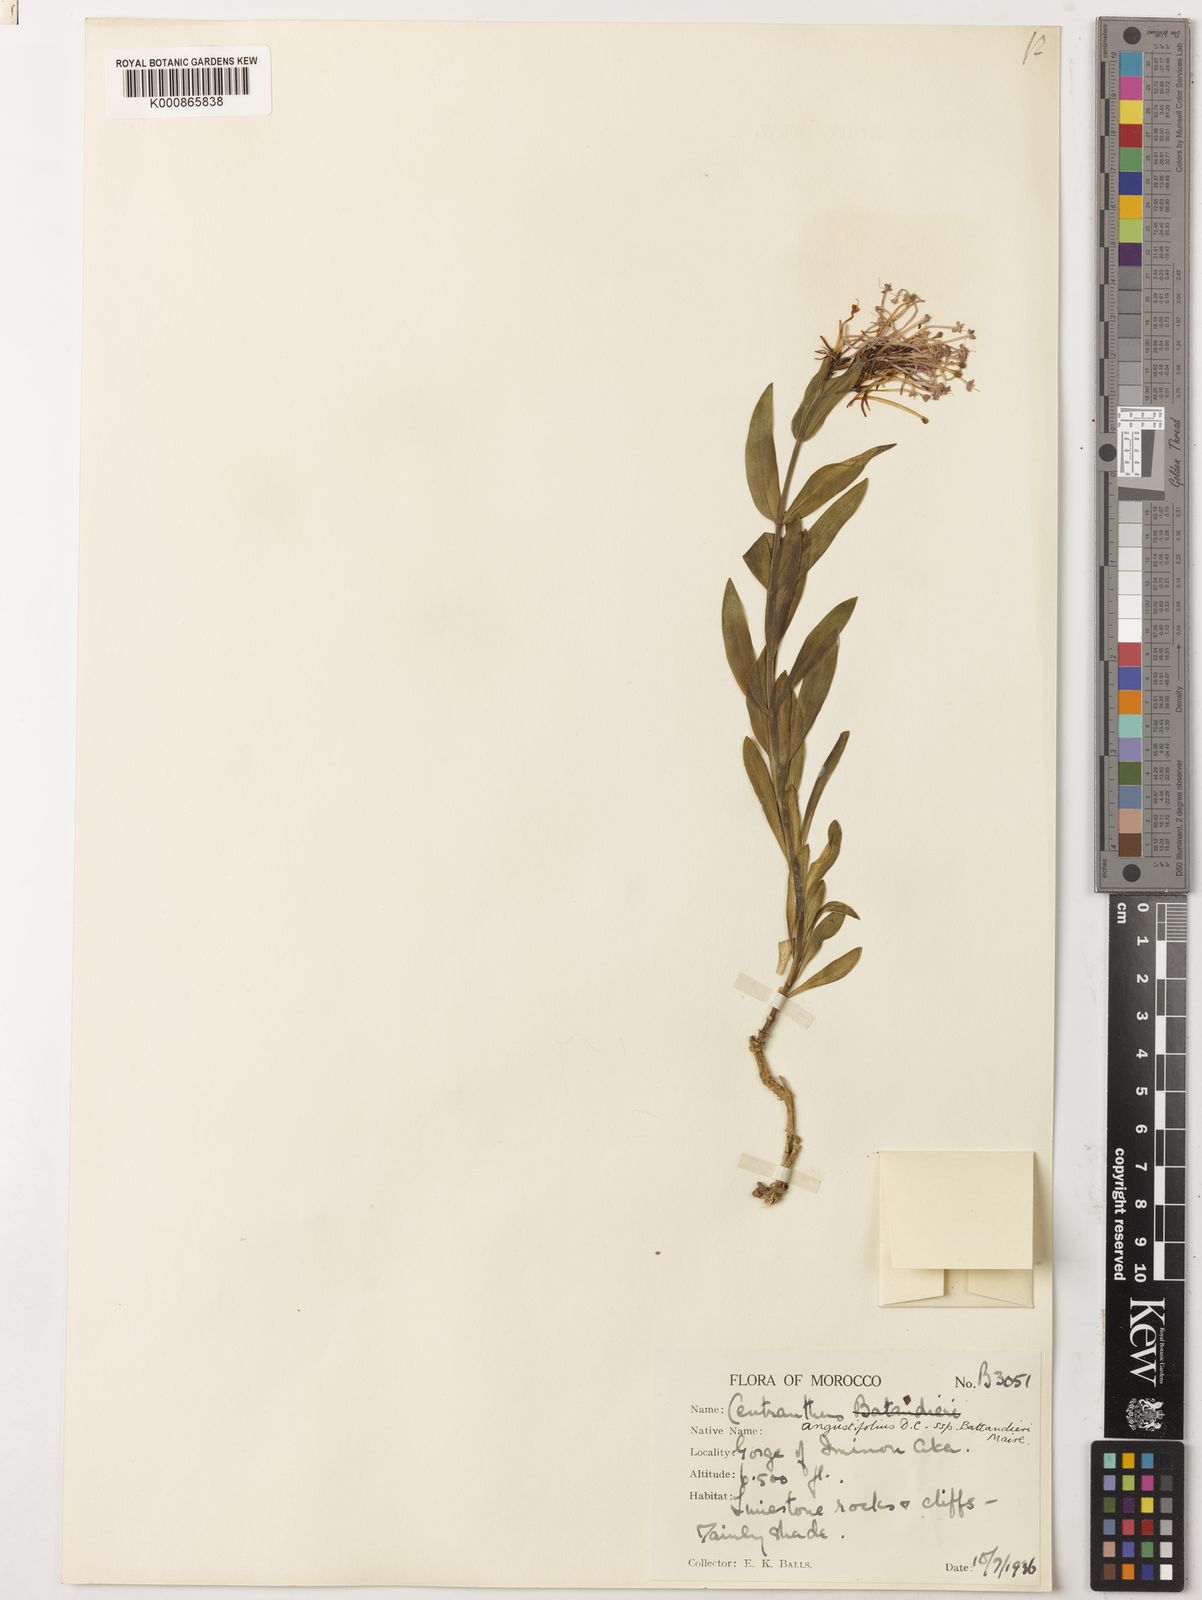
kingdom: Plantae
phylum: Tracheophyta
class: Magnoliopsida
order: Dipsacales
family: Caprifoliaceae
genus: Centranthus
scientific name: Centranthus angustifolius
